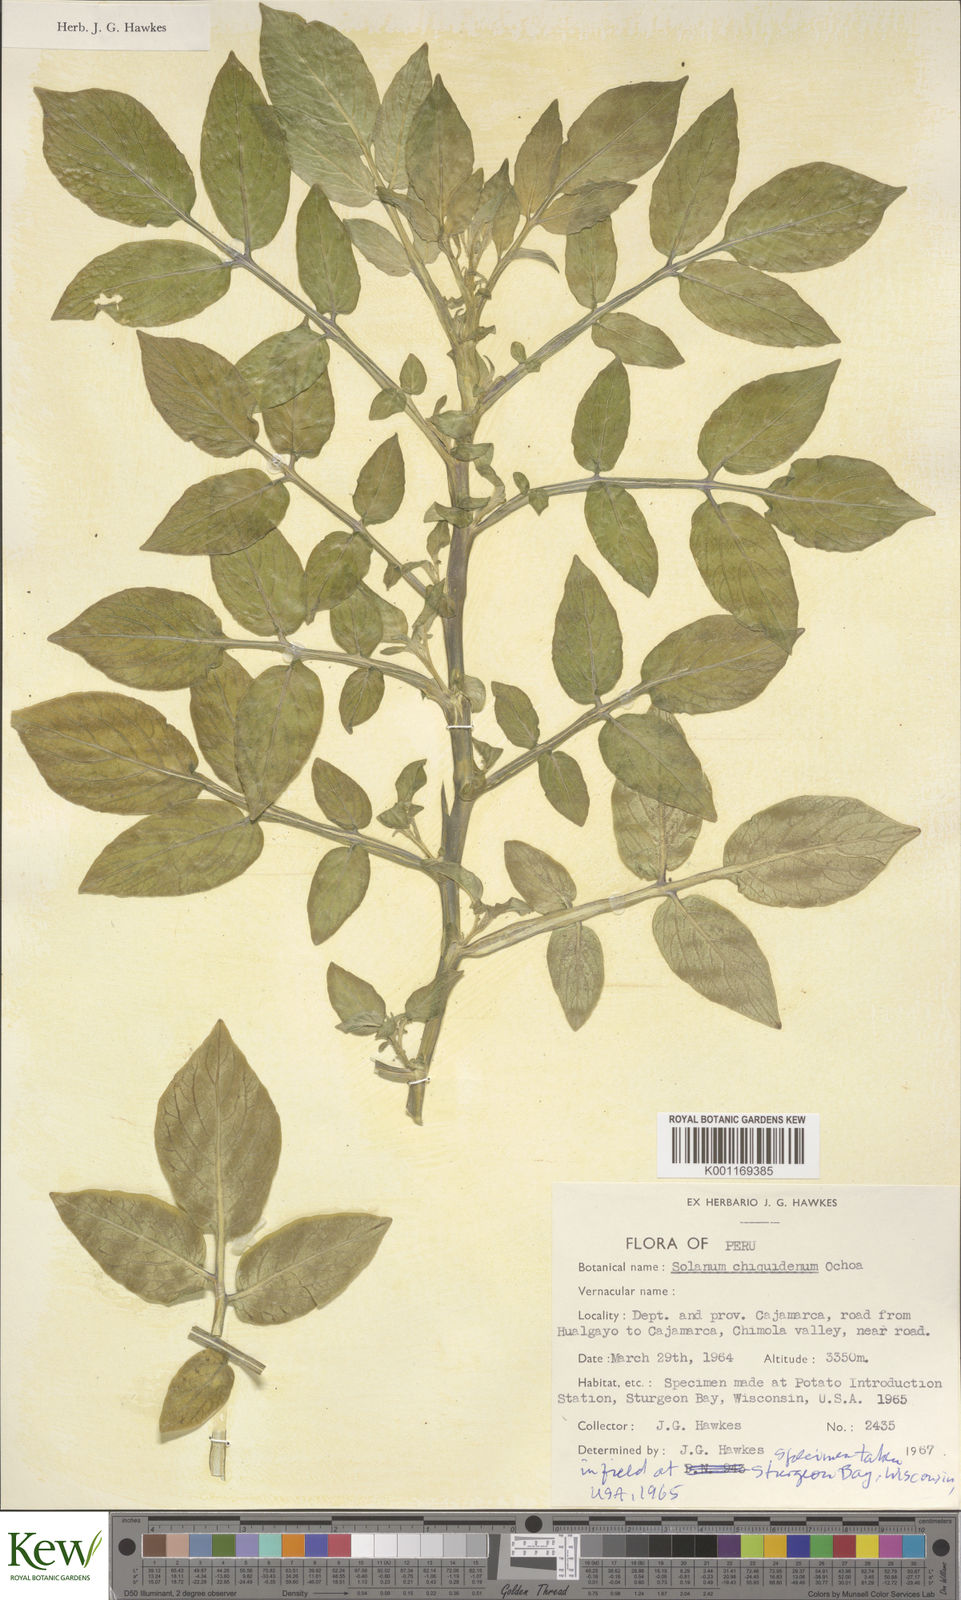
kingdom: Plantae
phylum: Tracheophyta
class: Magnoliopsida
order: Solanales
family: Solanaceae
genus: Solanum
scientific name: Solanum chiquidenum
